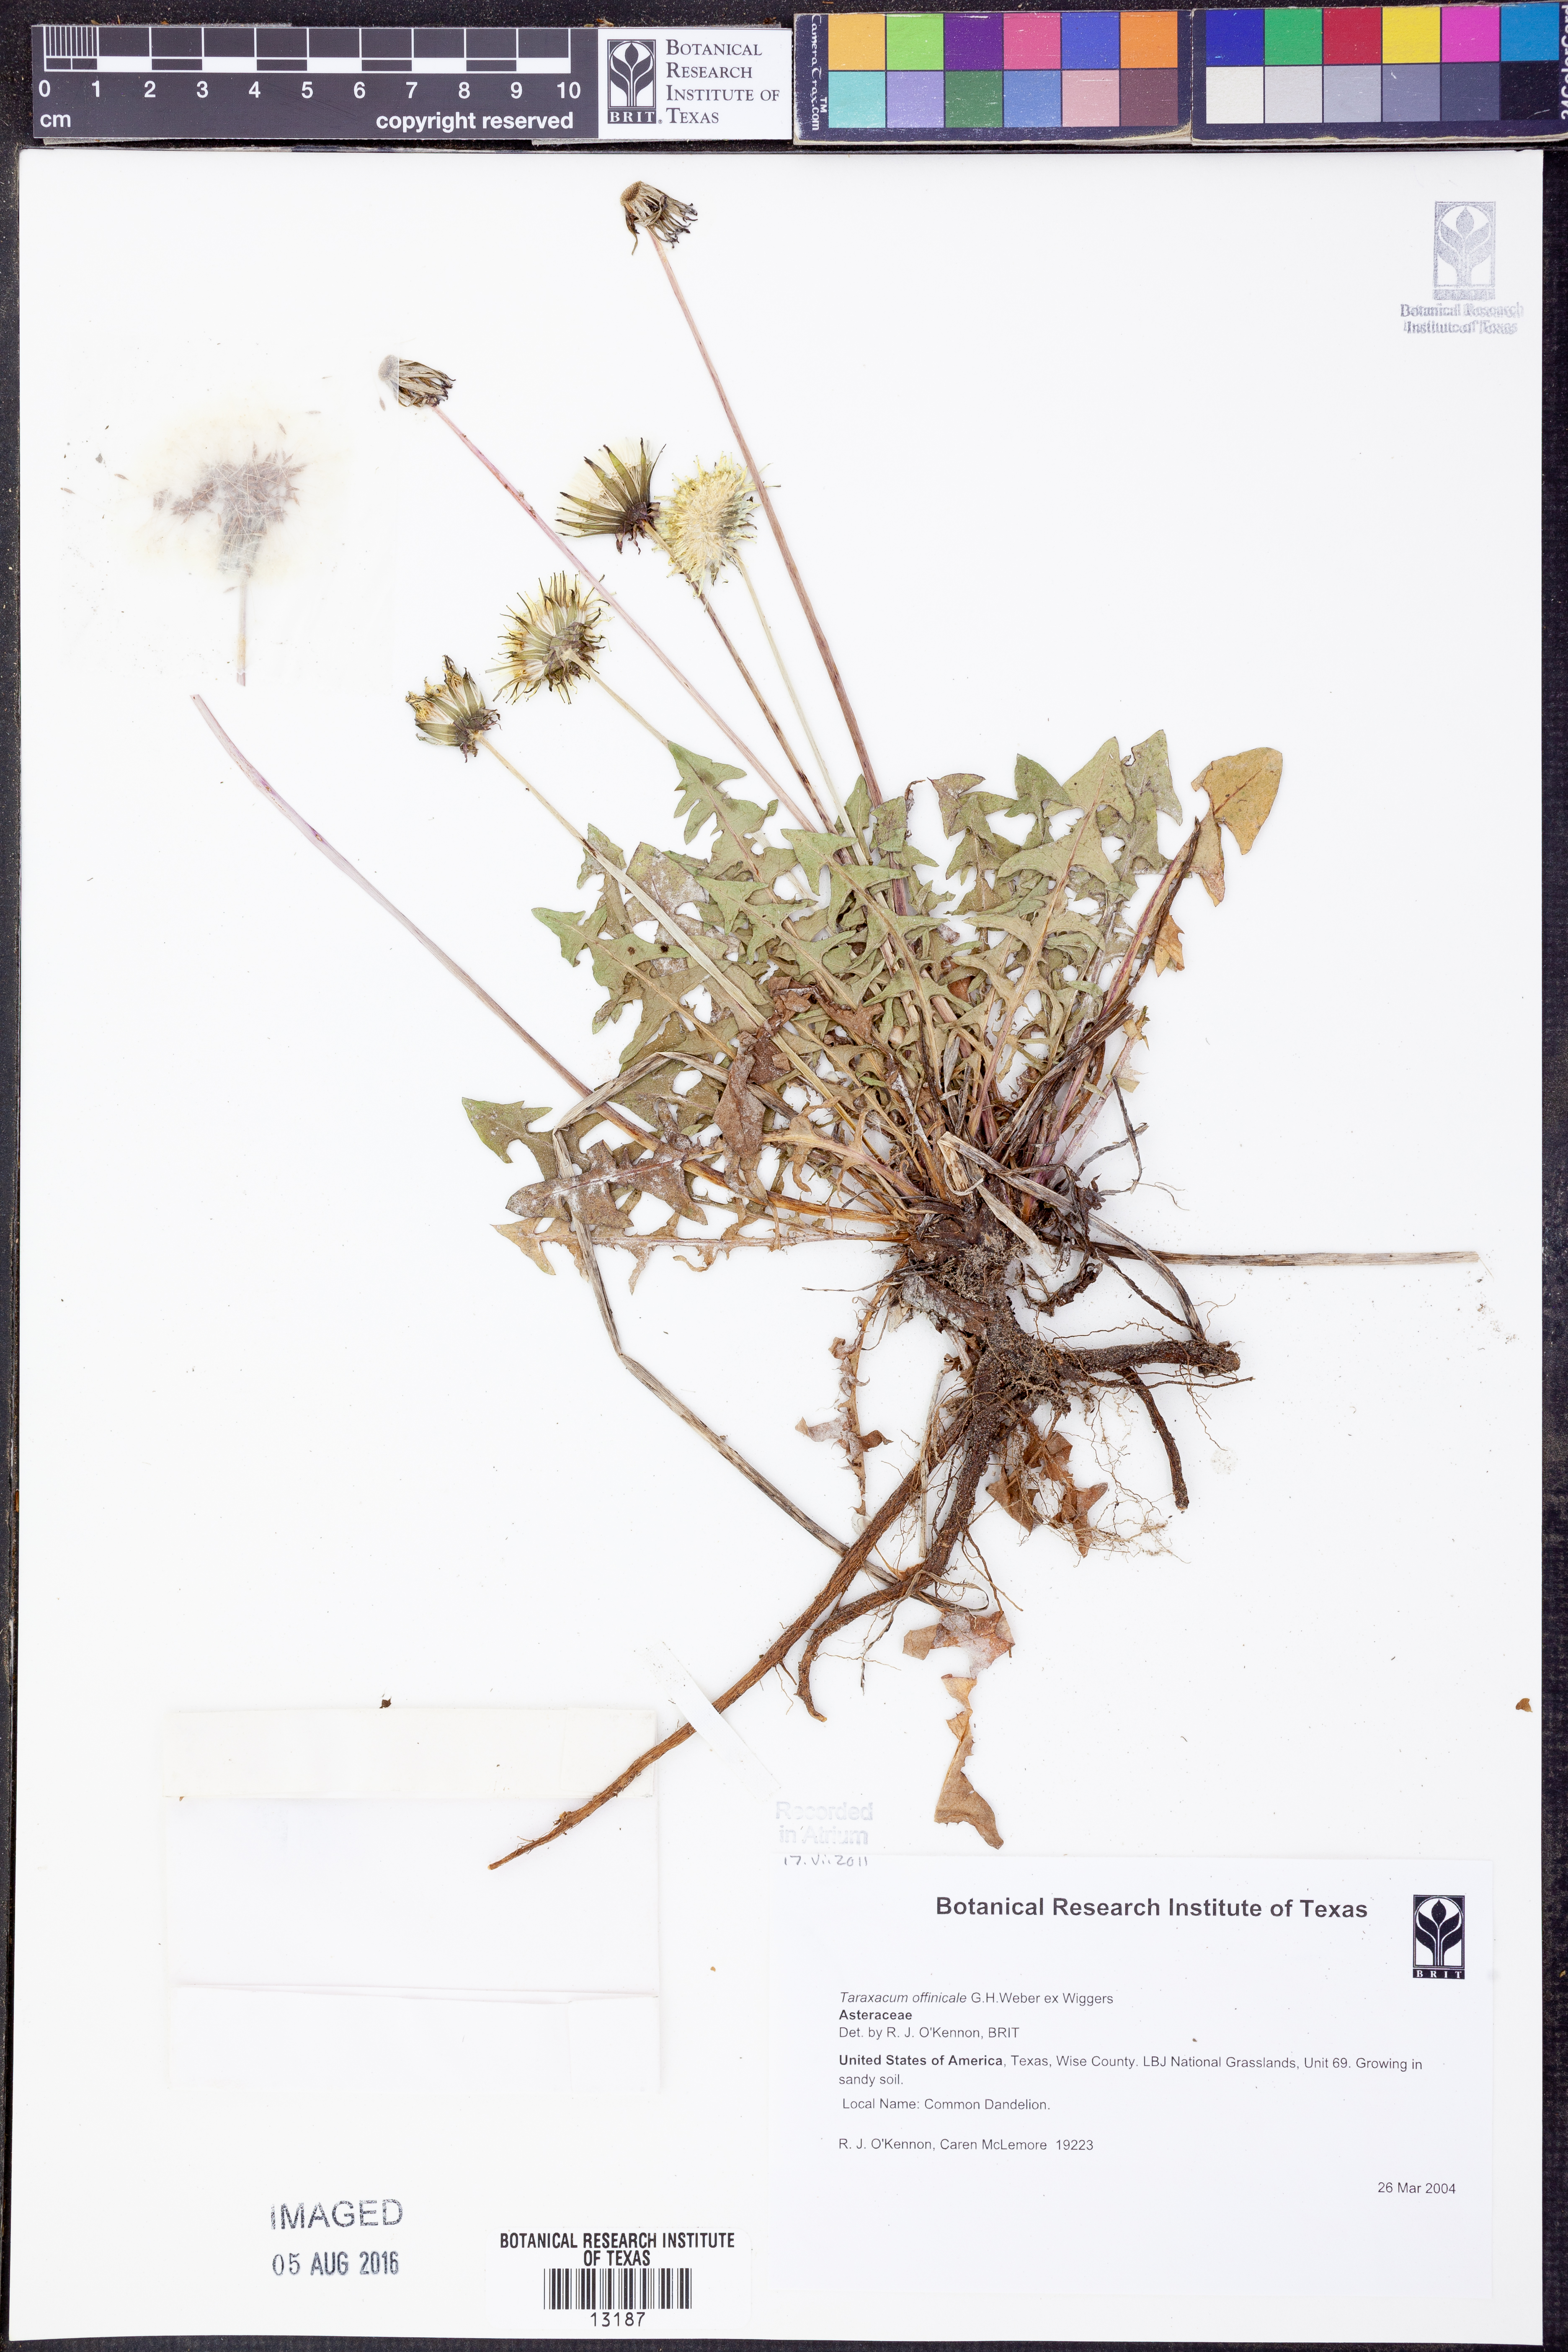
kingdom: Plantae
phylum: Tracheophyta
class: Magnoliopsida
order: Asterales
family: Asteraceae
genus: Taraxacum
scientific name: Taraxacum officinale
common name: Common dandelion
